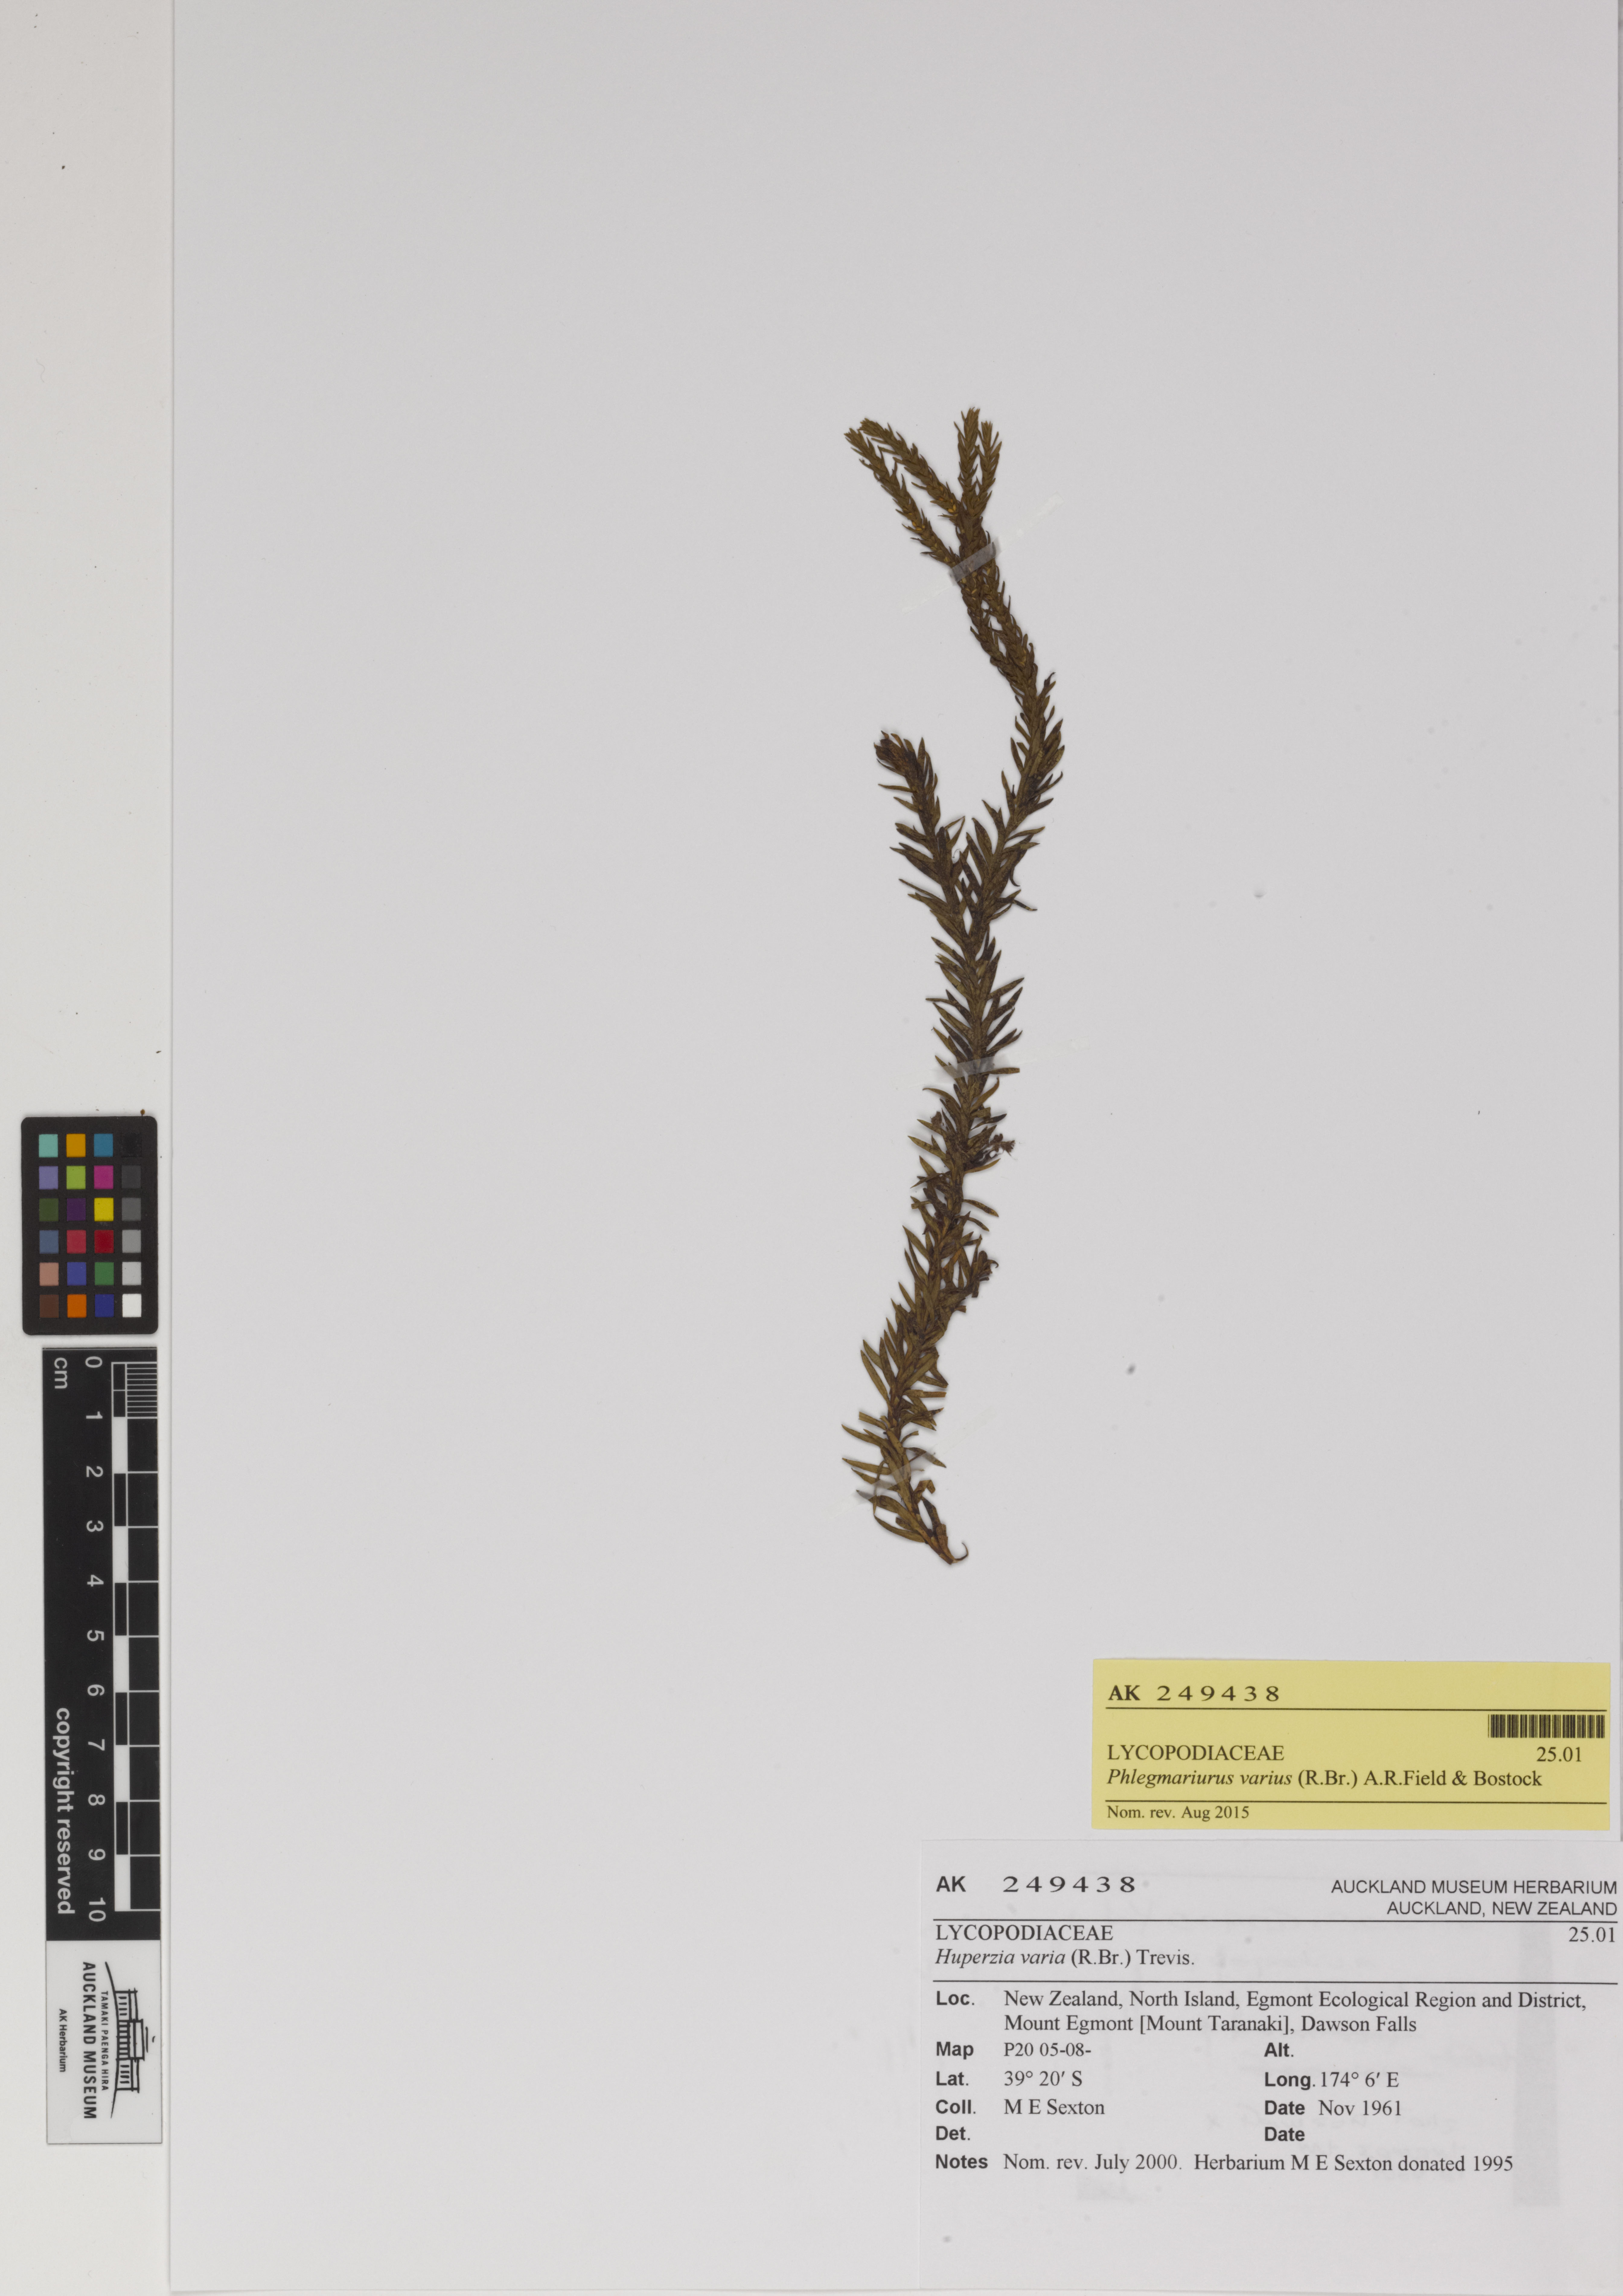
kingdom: Plantae
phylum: Tracheophyta
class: Lycopodiopsida
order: Lycopodiales
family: Lycopodiaceae
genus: Phlegmariurus
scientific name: Phlegmariurus varius
